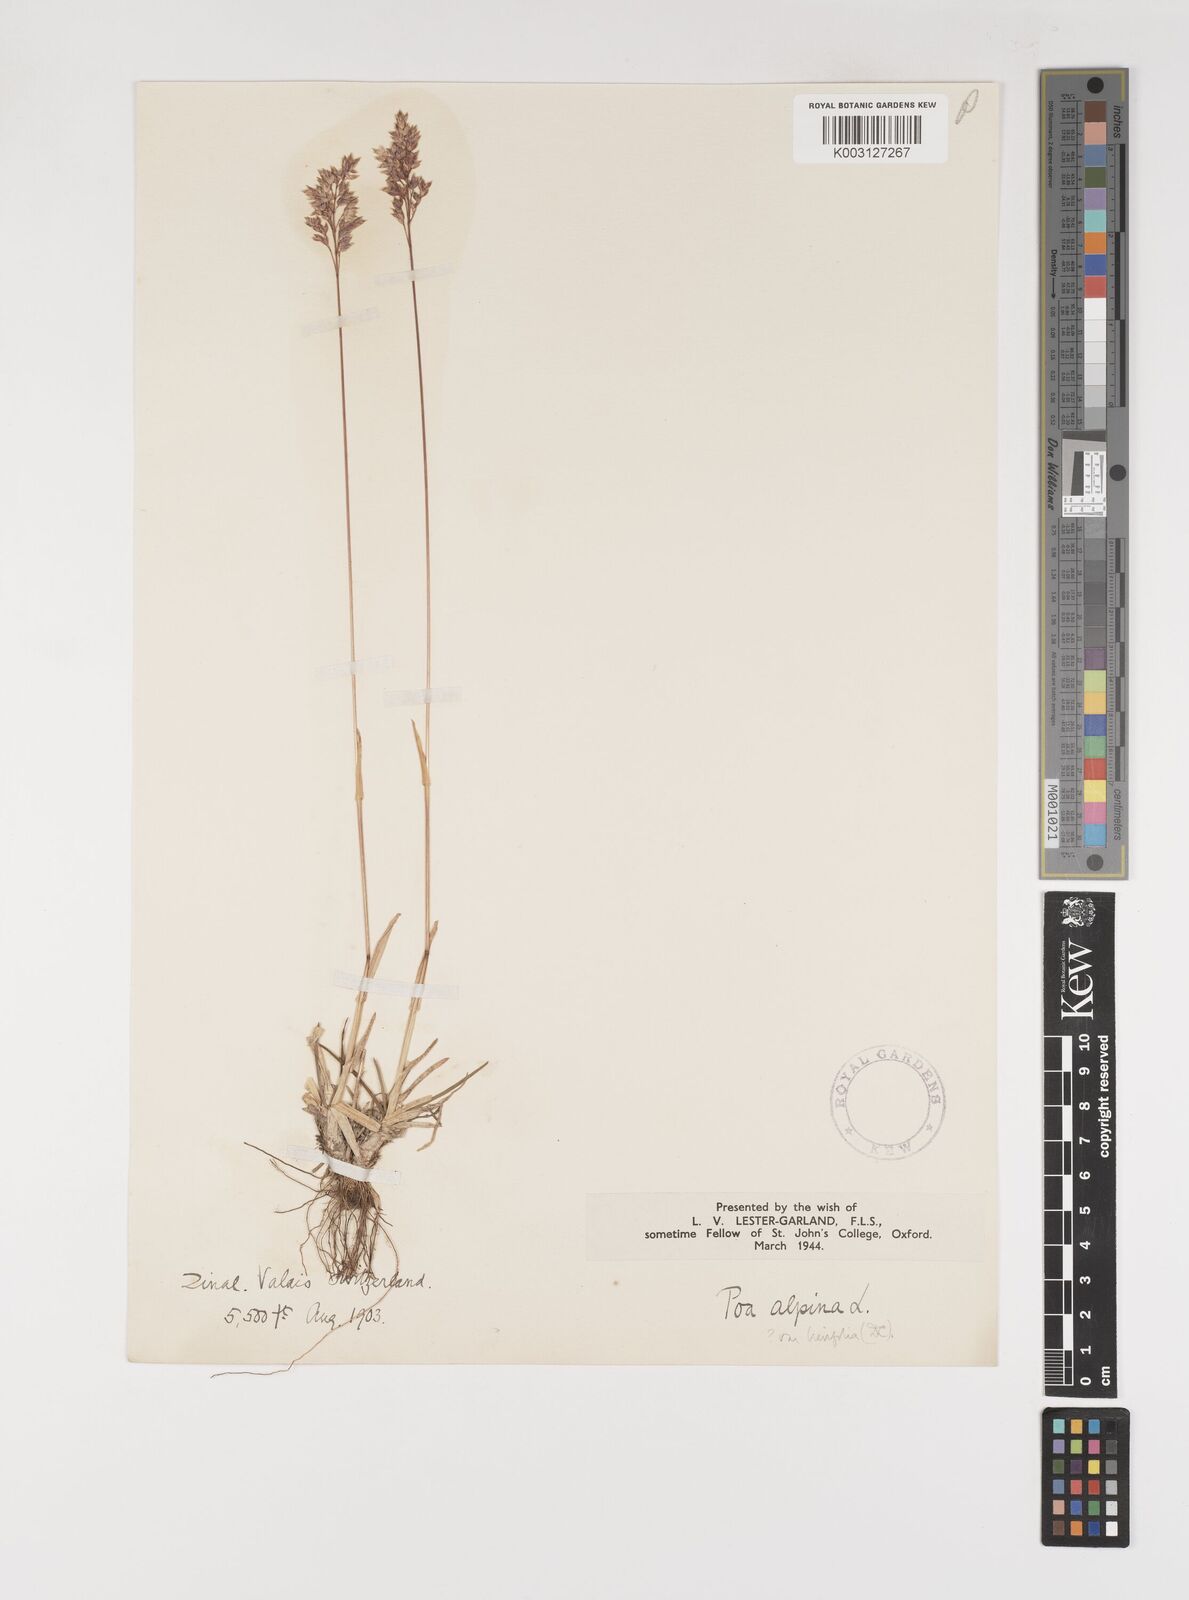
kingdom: Plantae
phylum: Tracheophyta
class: Liliopsida
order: Poales
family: Poaceae
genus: Poa
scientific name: Poa alpina
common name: Alpine bluegrass
